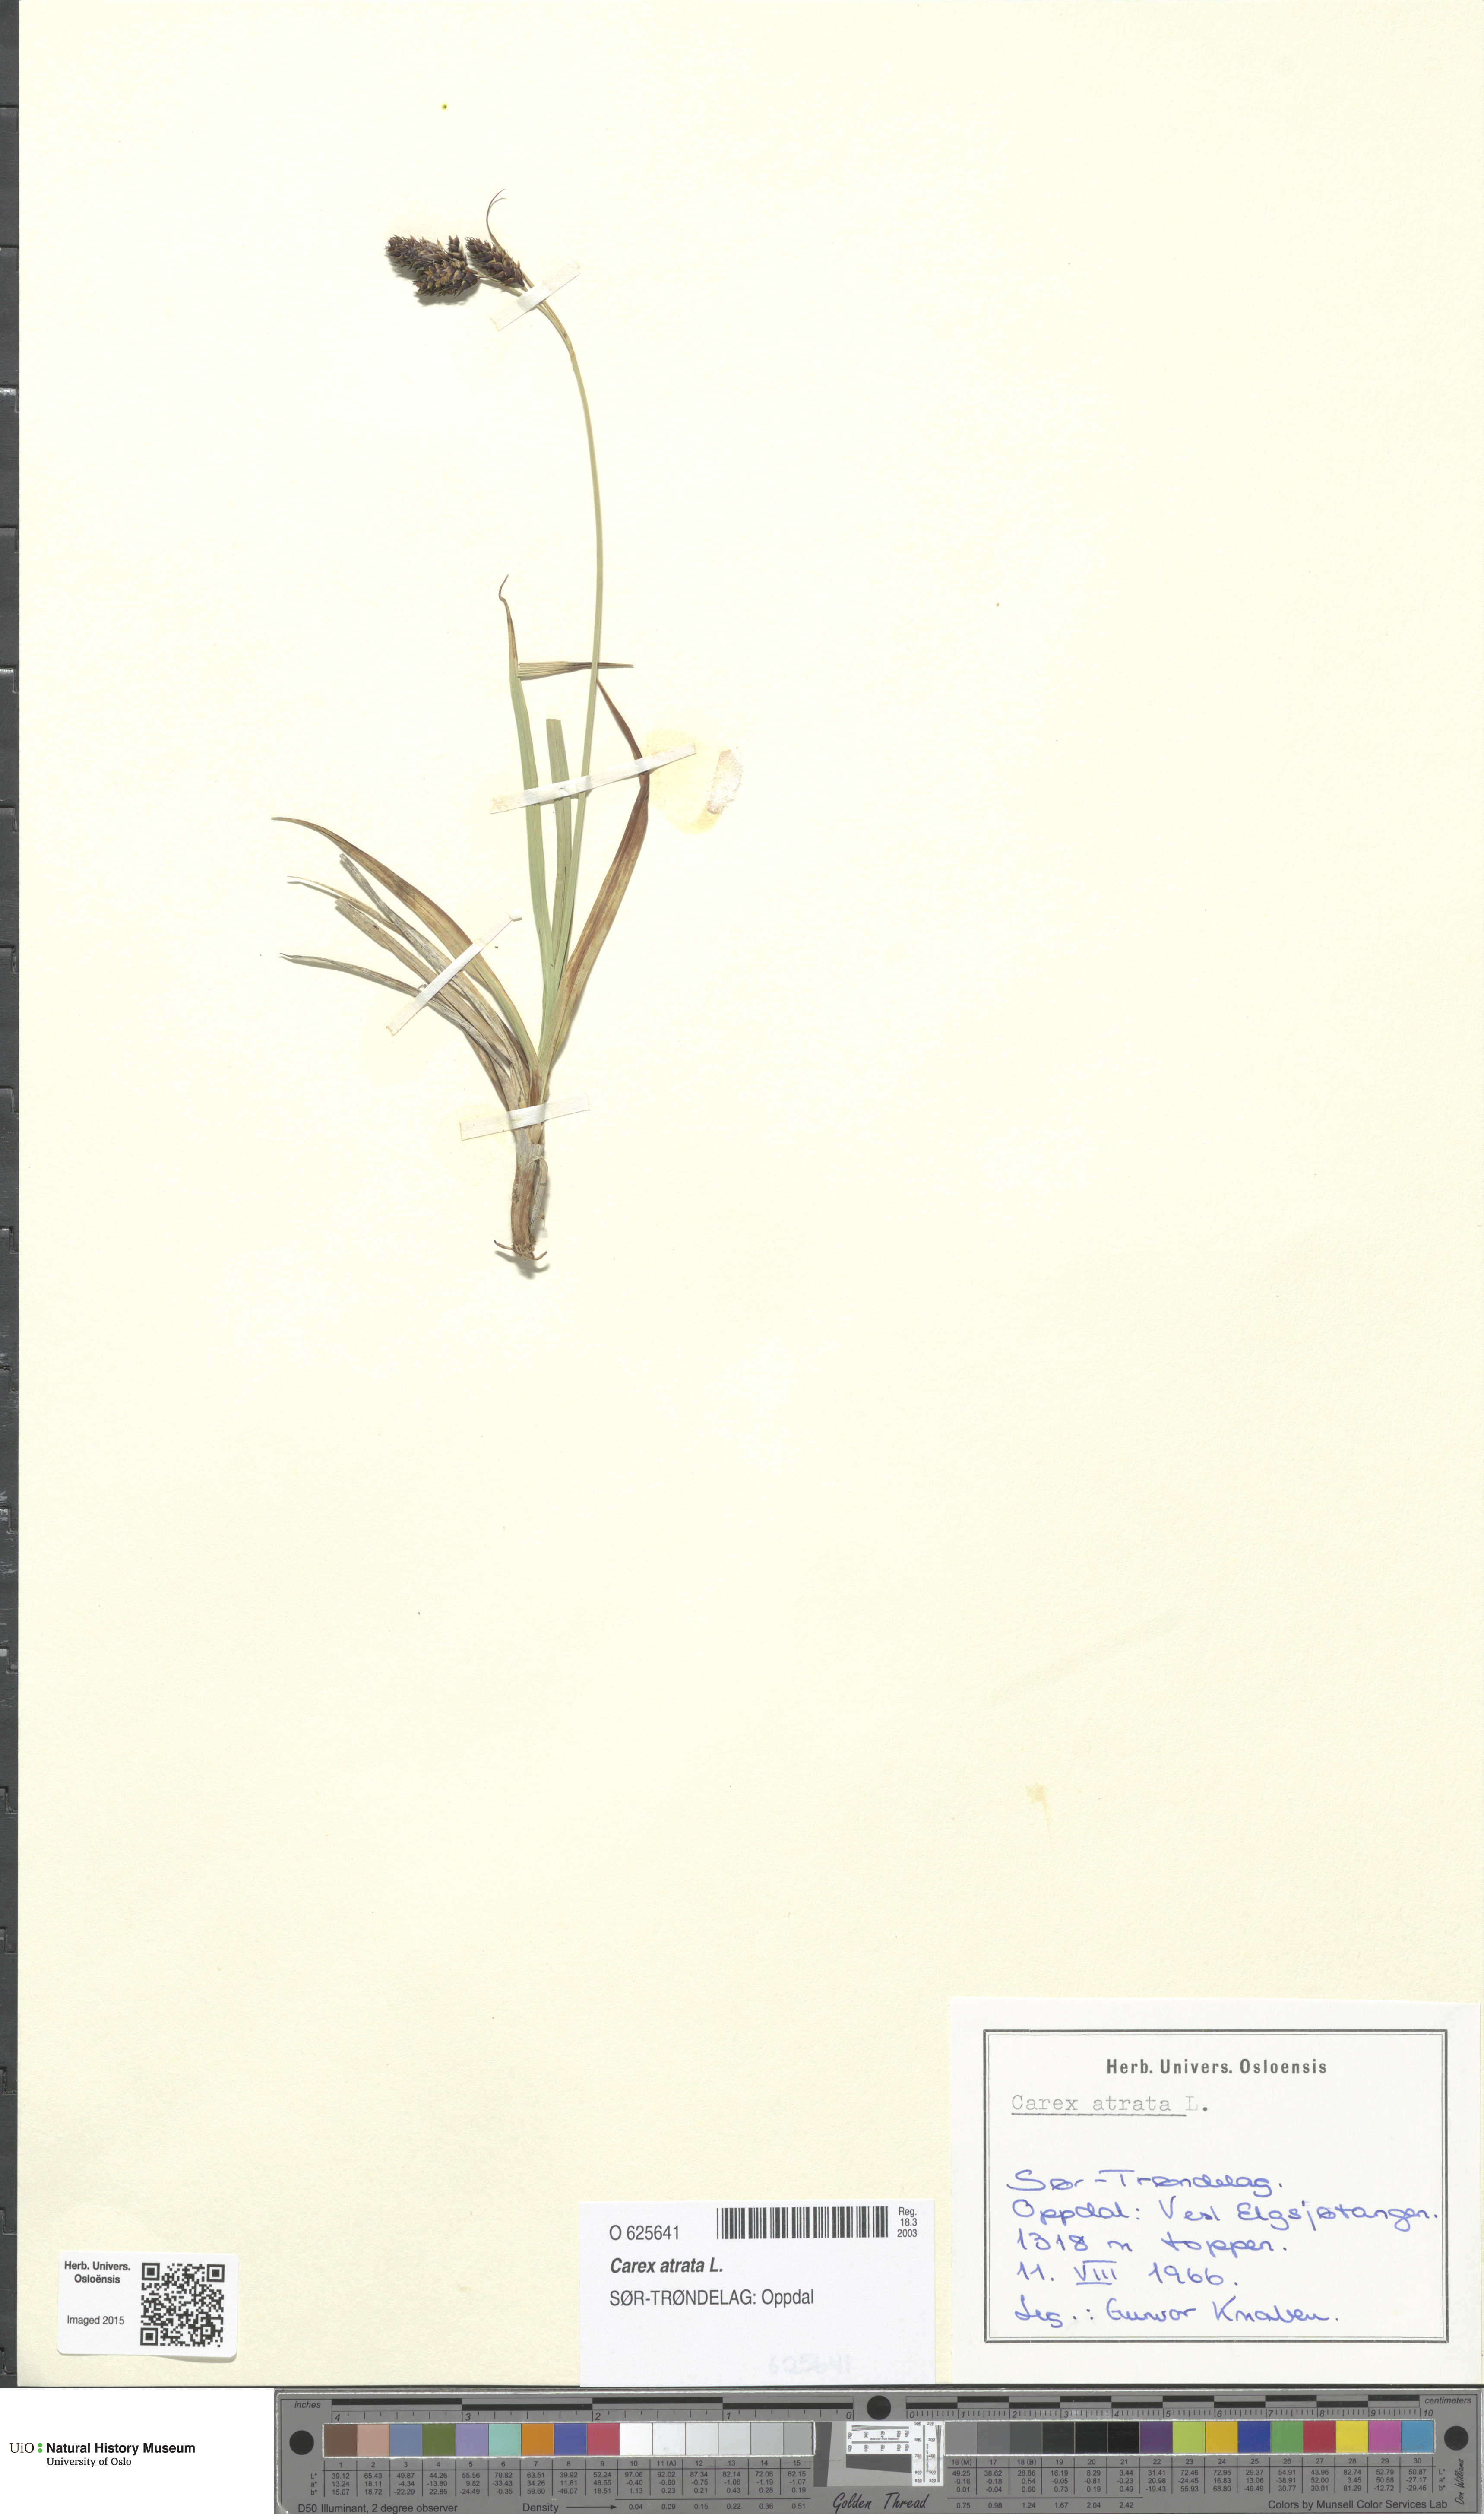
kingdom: Plantae
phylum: Tracheophyta
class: Liliopsida
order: Poales
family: Cyperaceae
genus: Carex
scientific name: Carex atrata
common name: Black alpine sedge
